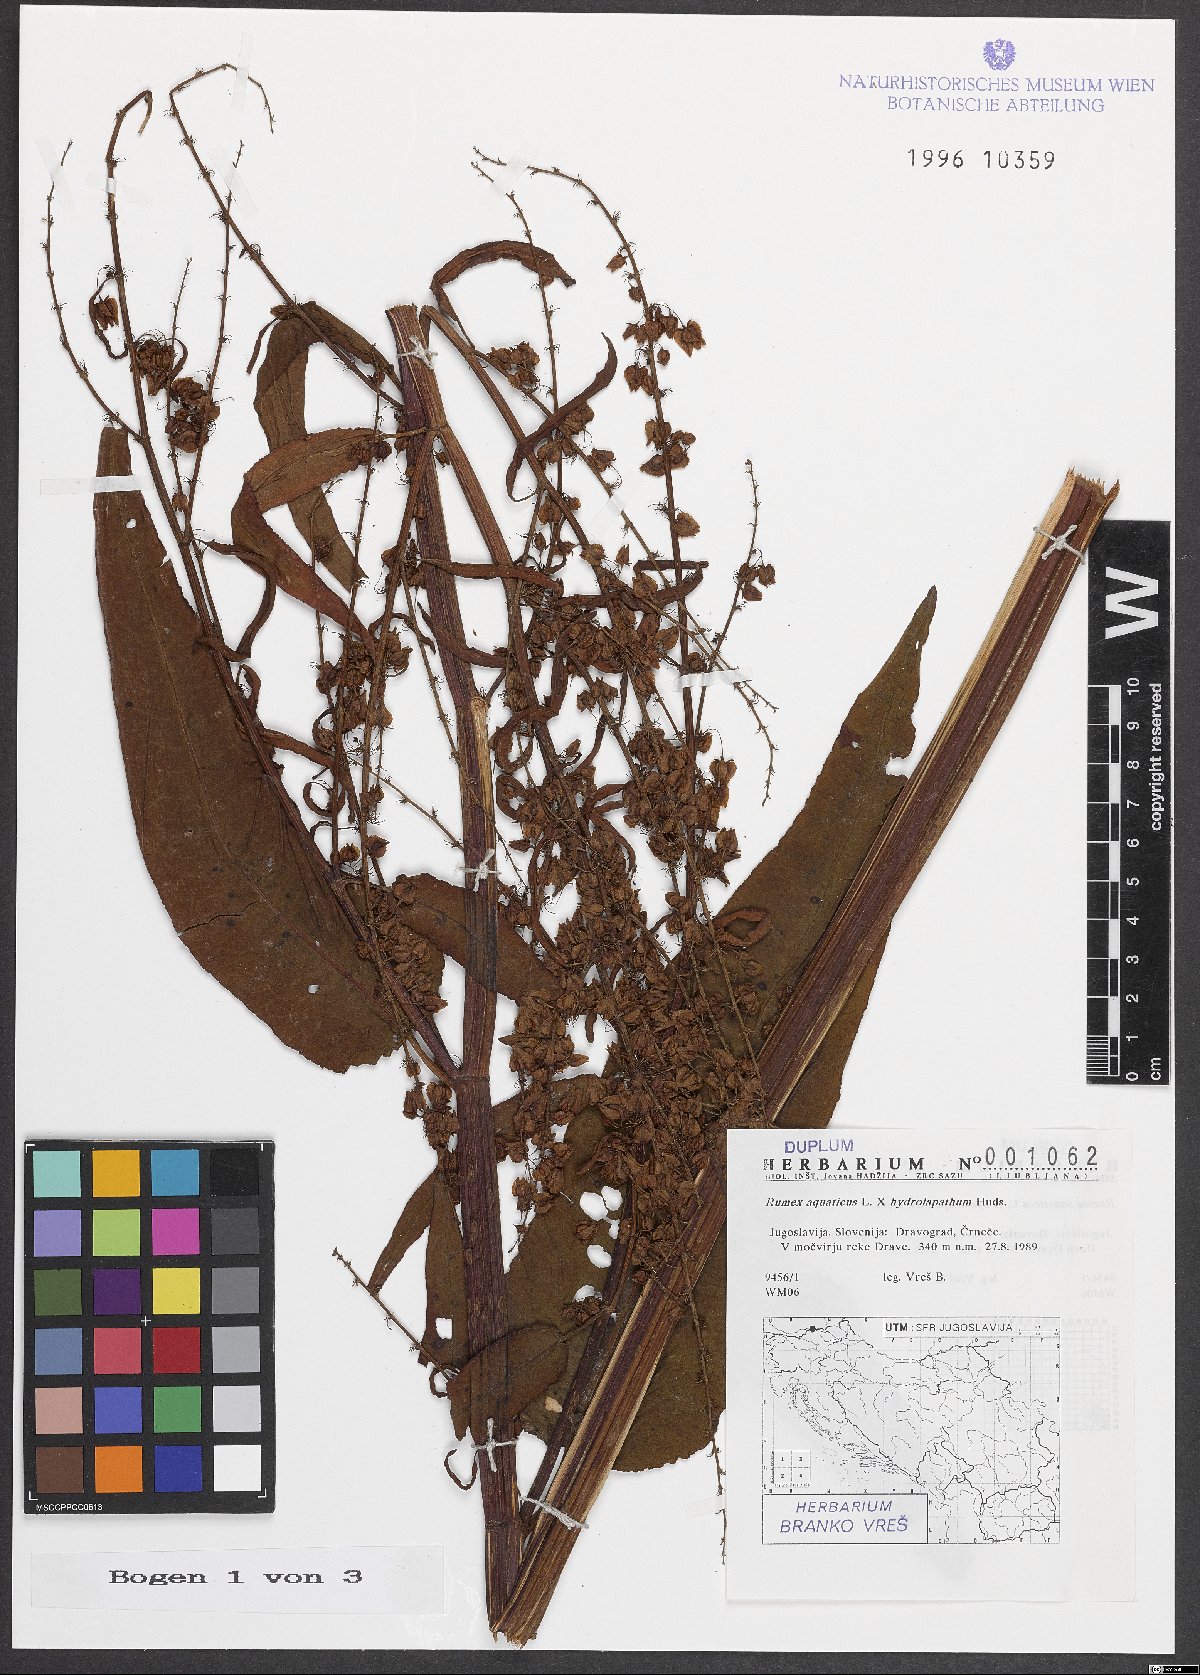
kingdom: Plantae
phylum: Tracheophyta
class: Magnoliopsida
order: Caryophyllales
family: Polygonaceae
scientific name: Polygonaceae
